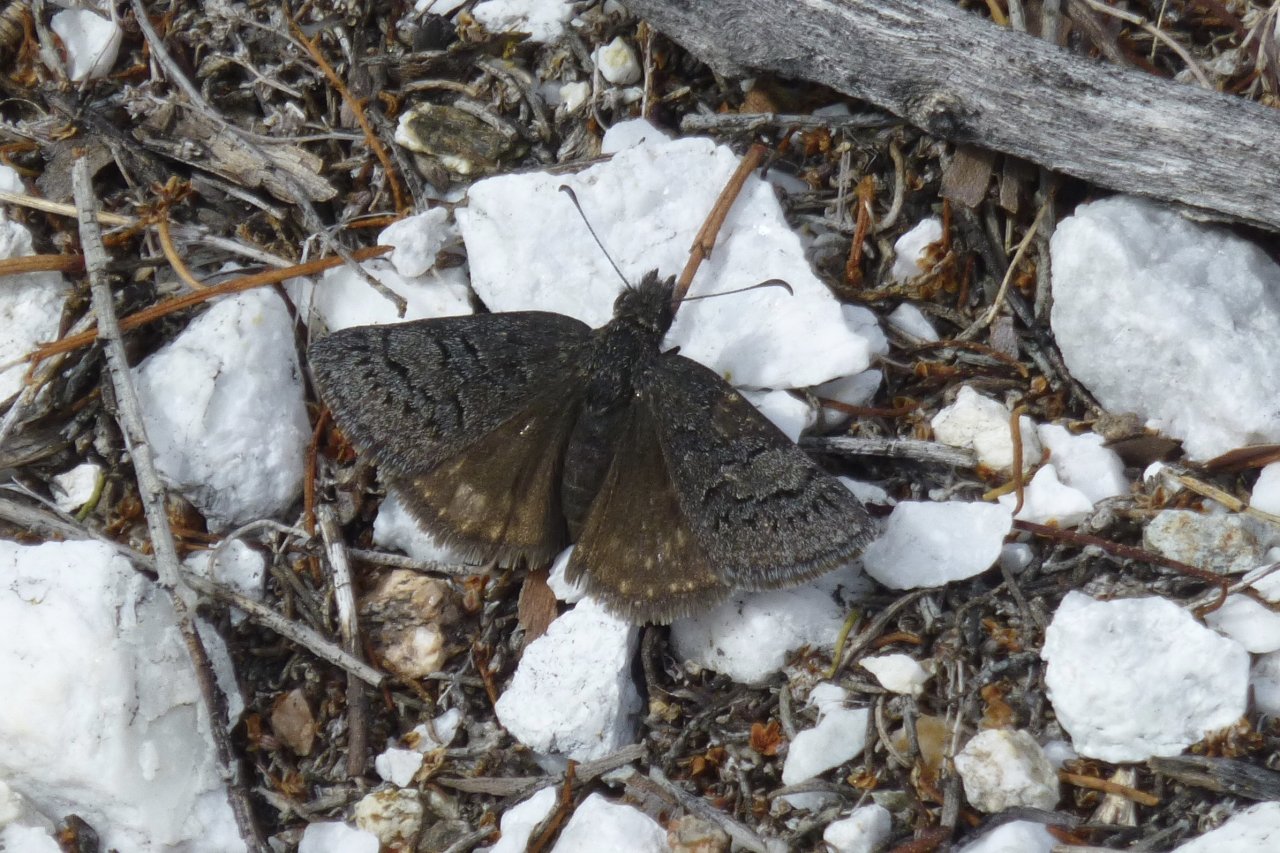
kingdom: Animalia
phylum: Arthropoda
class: Insecta
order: Lepidoptera
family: Hesperiidae
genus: Erynnis
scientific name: Erynnis brizo
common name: Sleepy Duskywing
